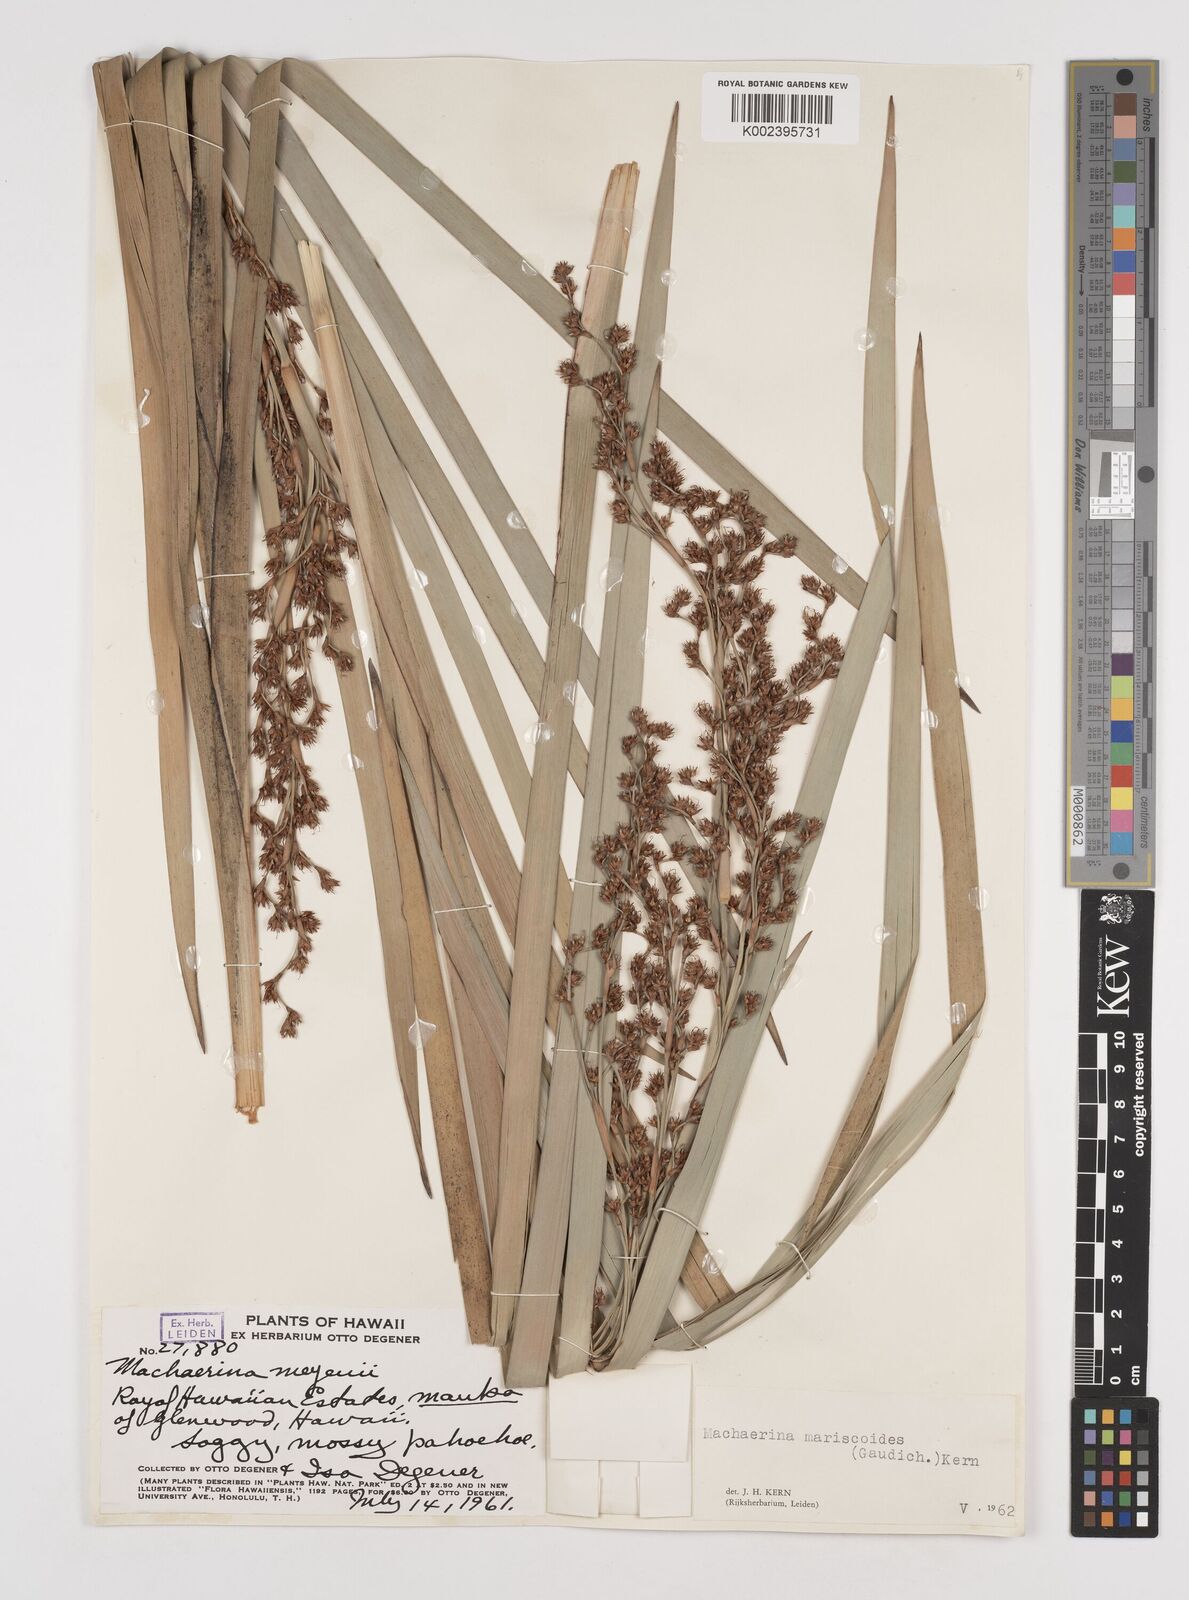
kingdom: Plantae
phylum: Tracheophyta
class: Liliopsida
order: Poales
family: Cyperaceae
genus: Machaerina
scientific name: Machaerina mariscoides
